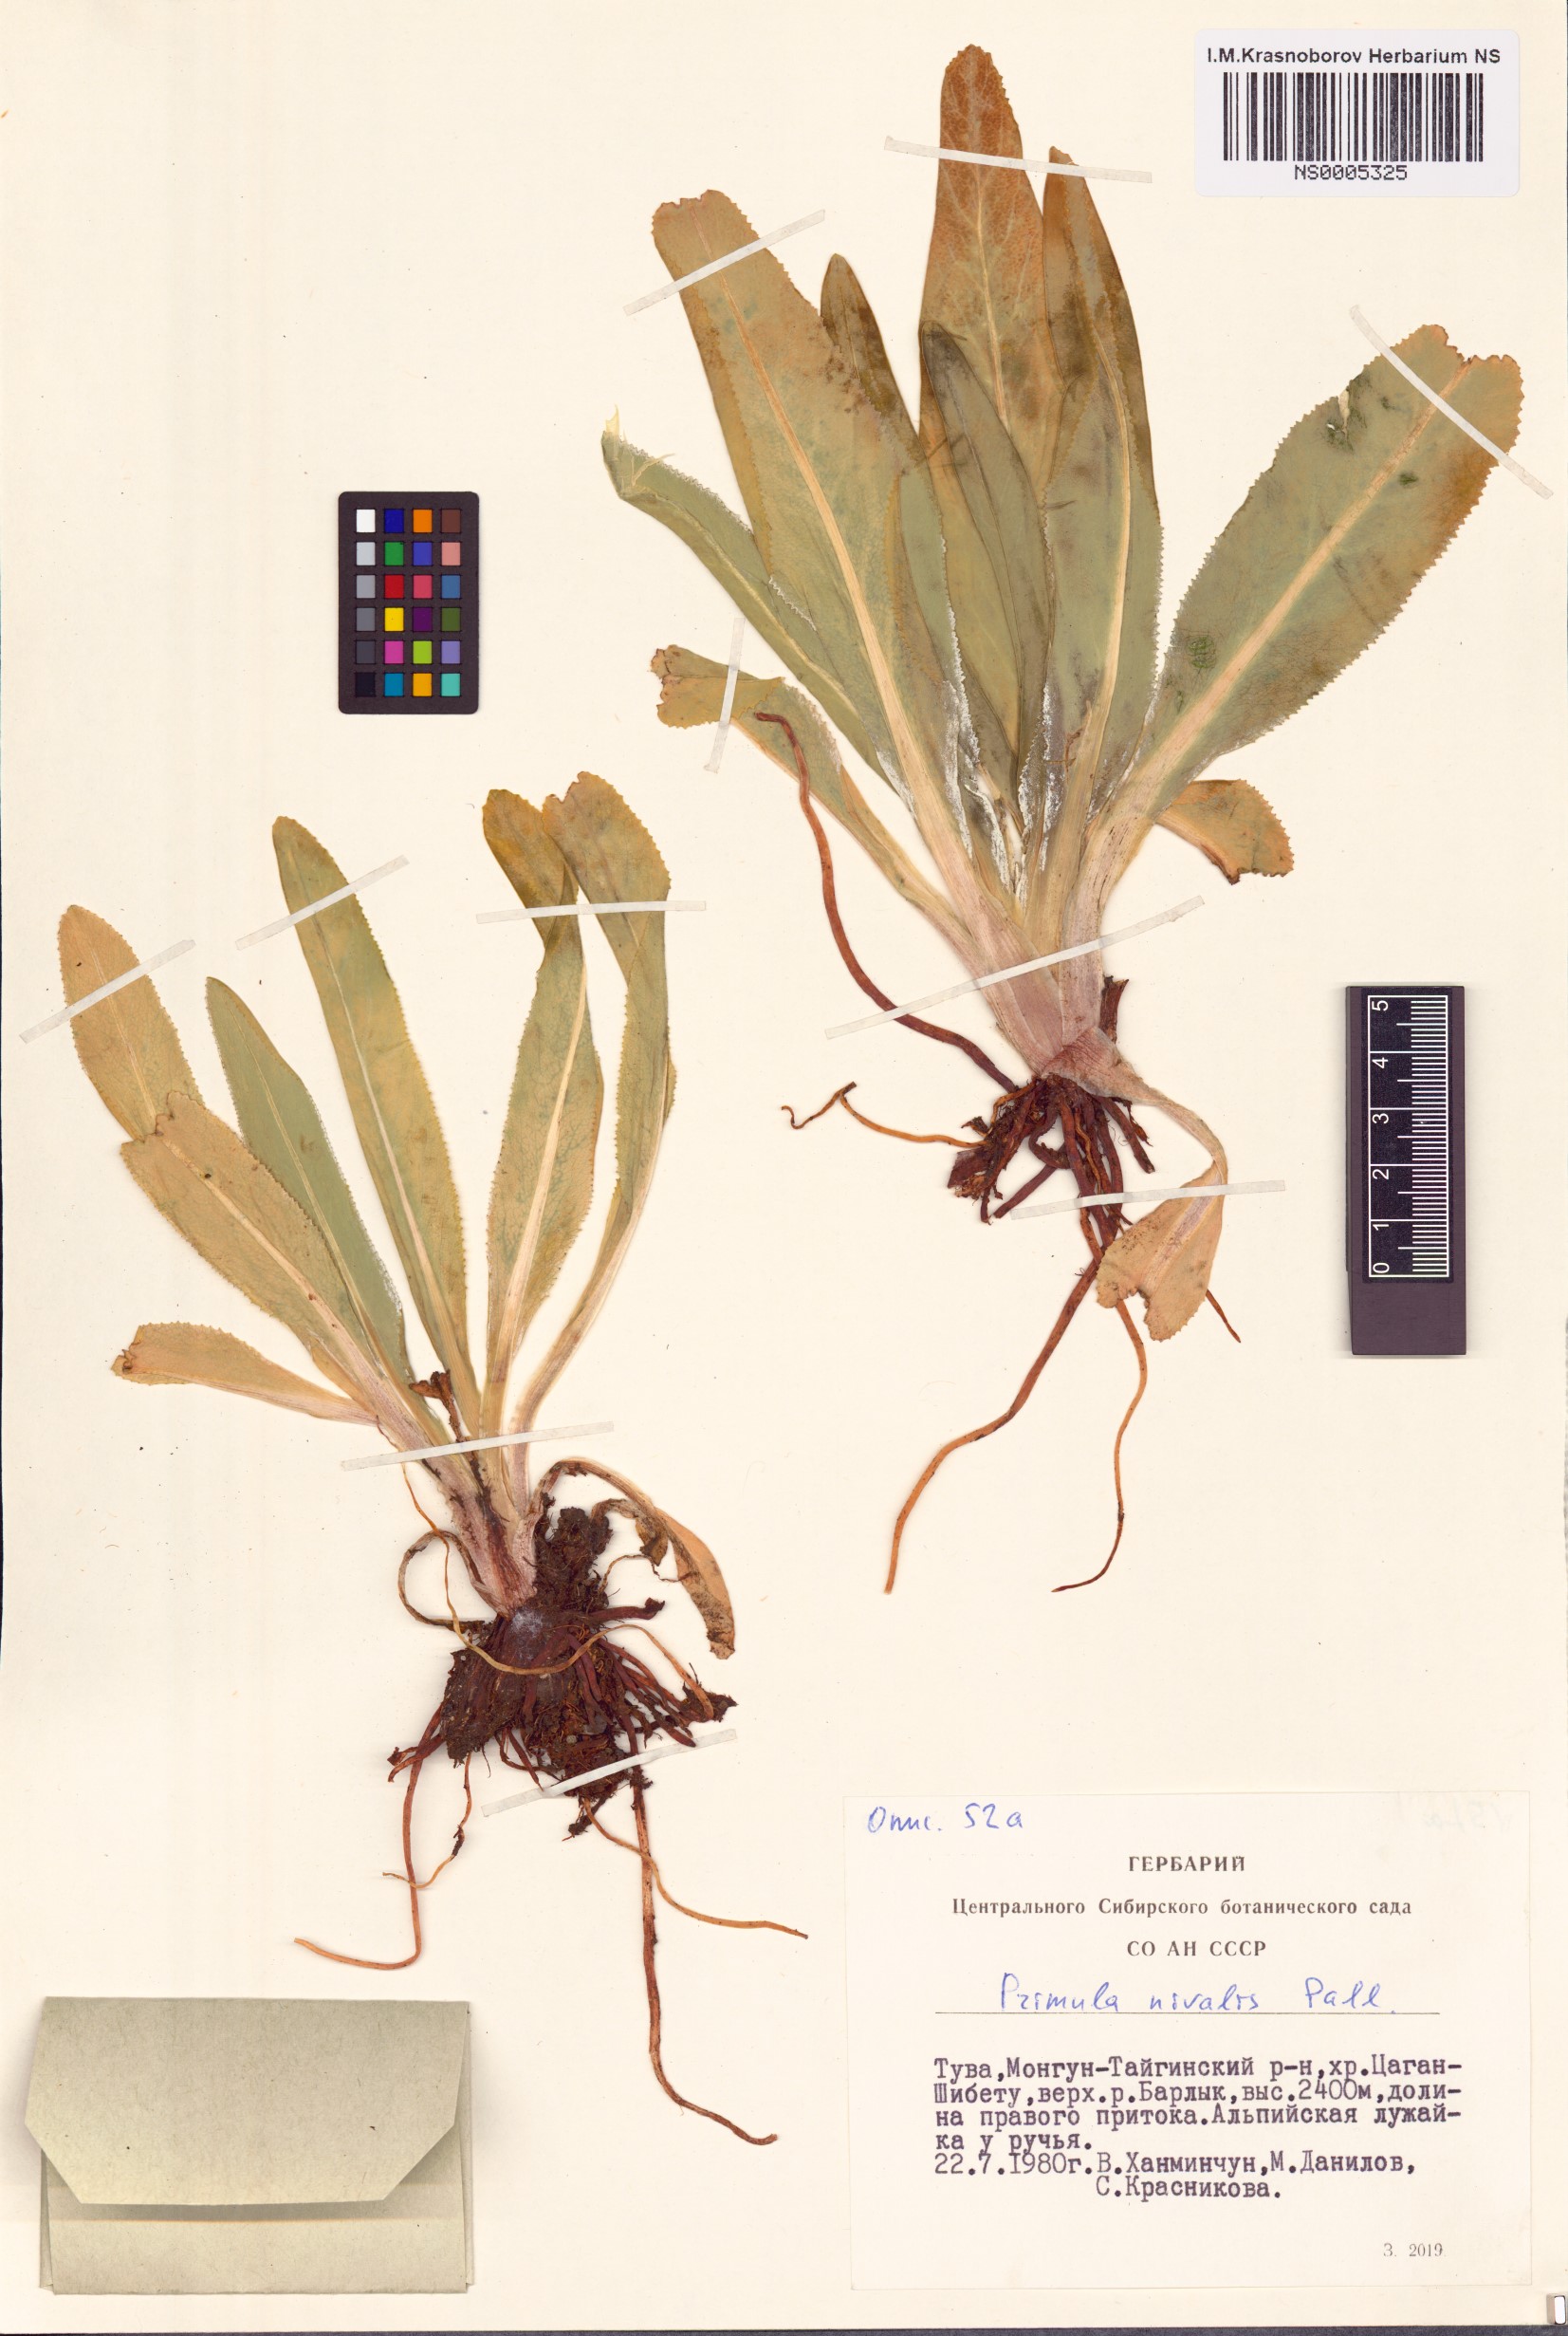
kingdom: Plantae
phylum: Tracheophyta
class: Magnoliopsida
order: Ericales
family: Primulaceae
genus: Primula
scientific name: Primula nivalis
